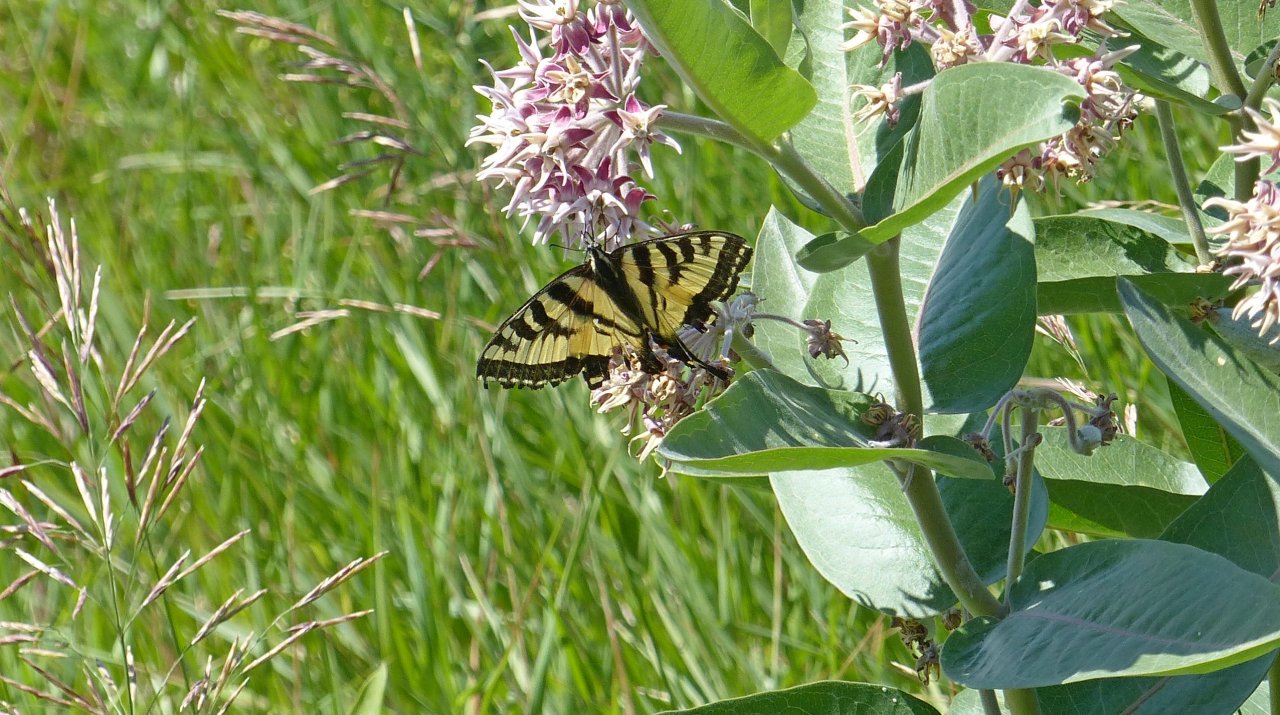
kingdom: Animalia
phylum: Arthropoda
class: Insecta
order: Lepidoptera
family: Papilionidae
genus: Pterourus
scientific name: Pterourus rutulus
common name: Western Tiger Swallowtail
